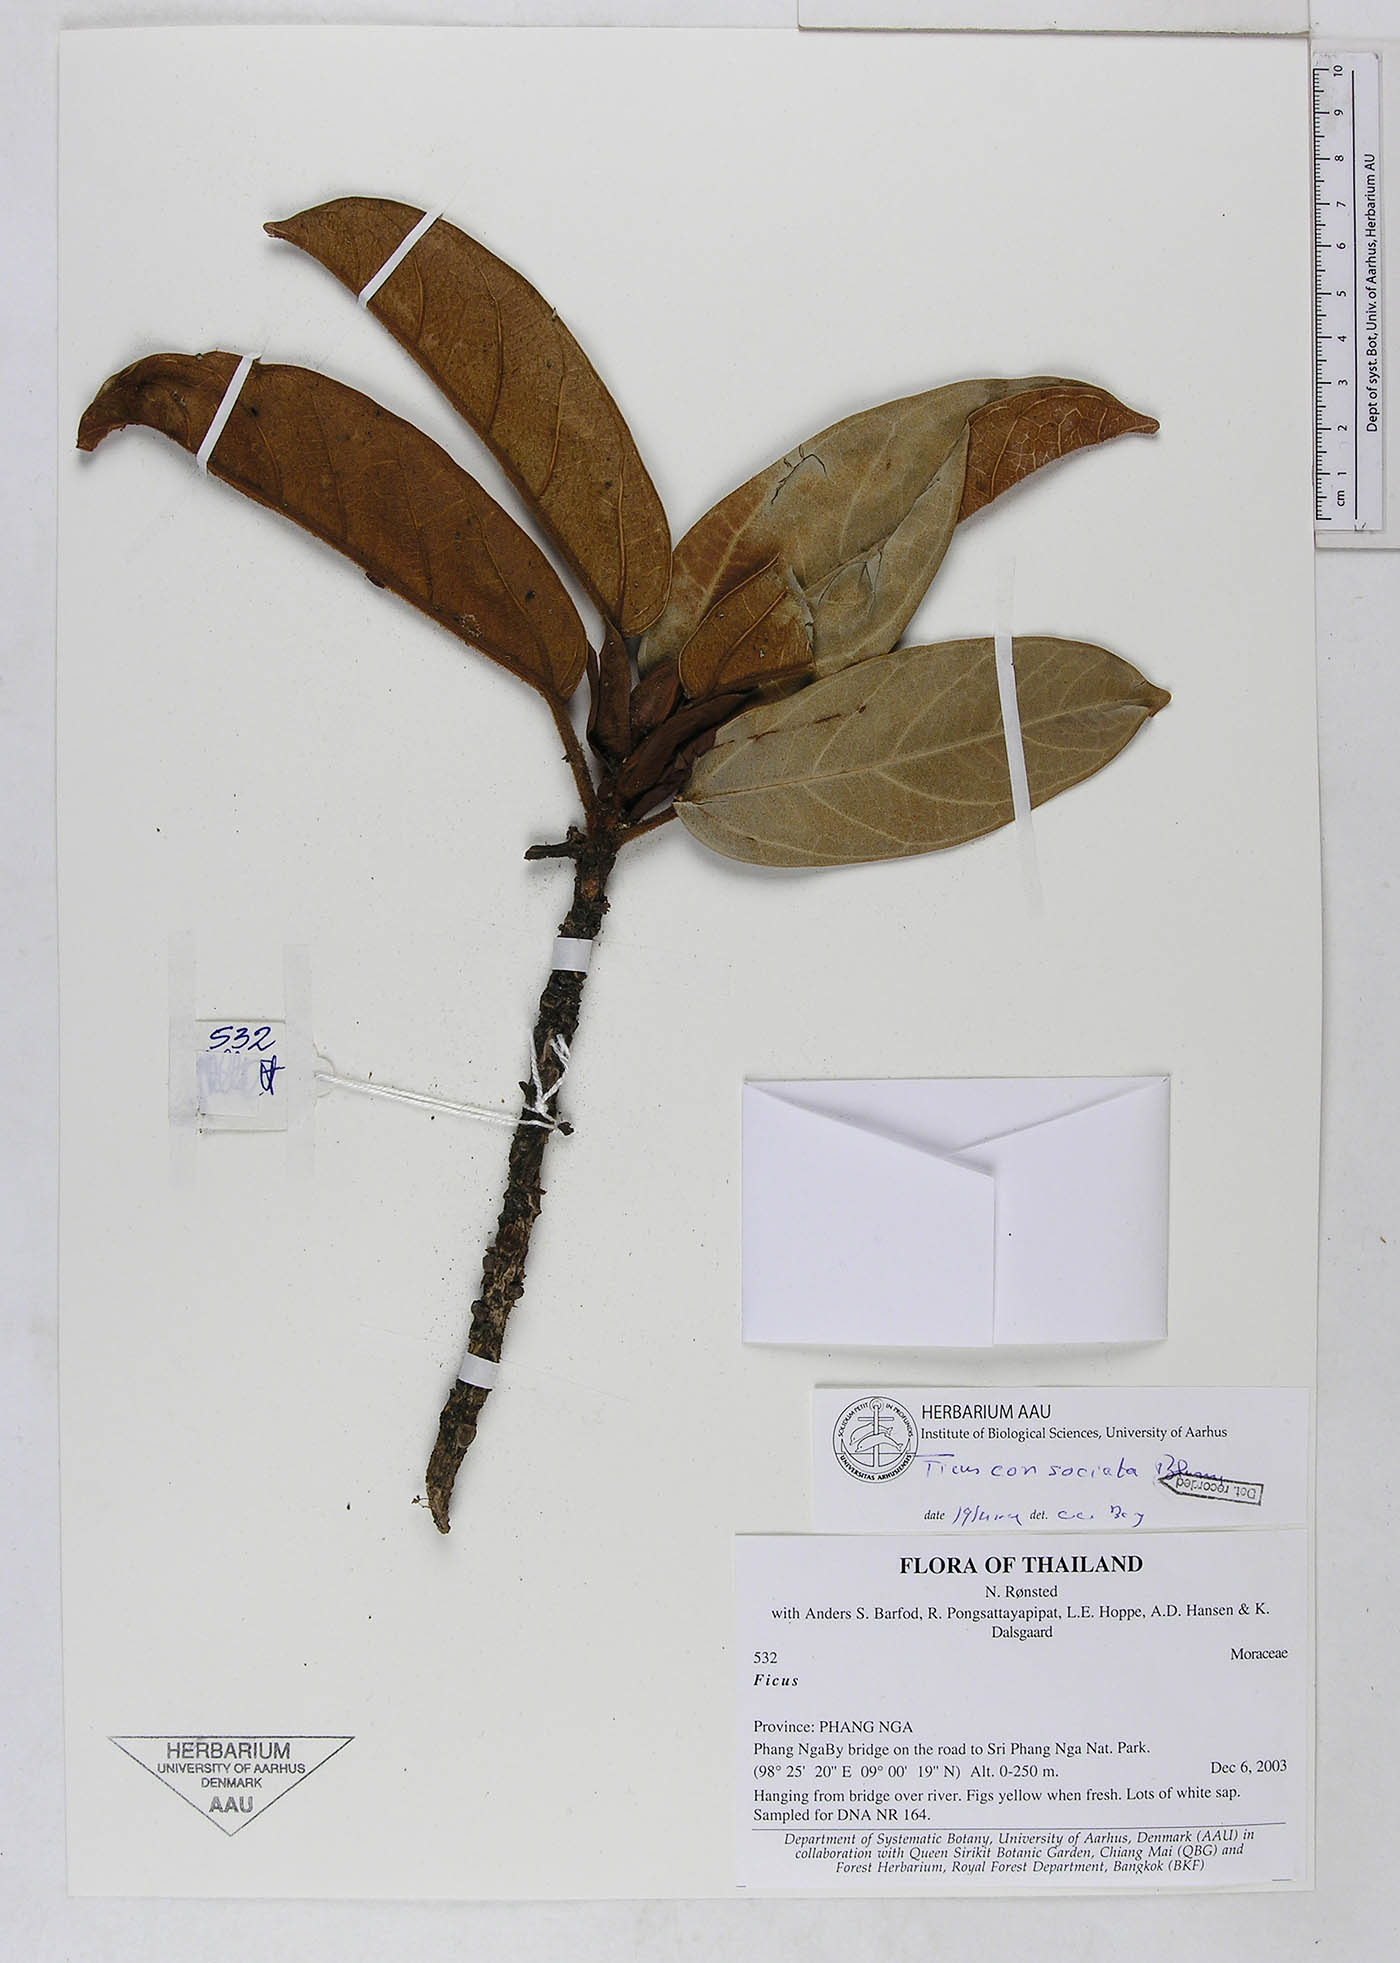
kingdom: Plantae
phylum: Tracheophyta
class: Magnoliopsida
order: Rosales
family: Moraceae
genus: Ficus
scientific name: Ficus consociata
